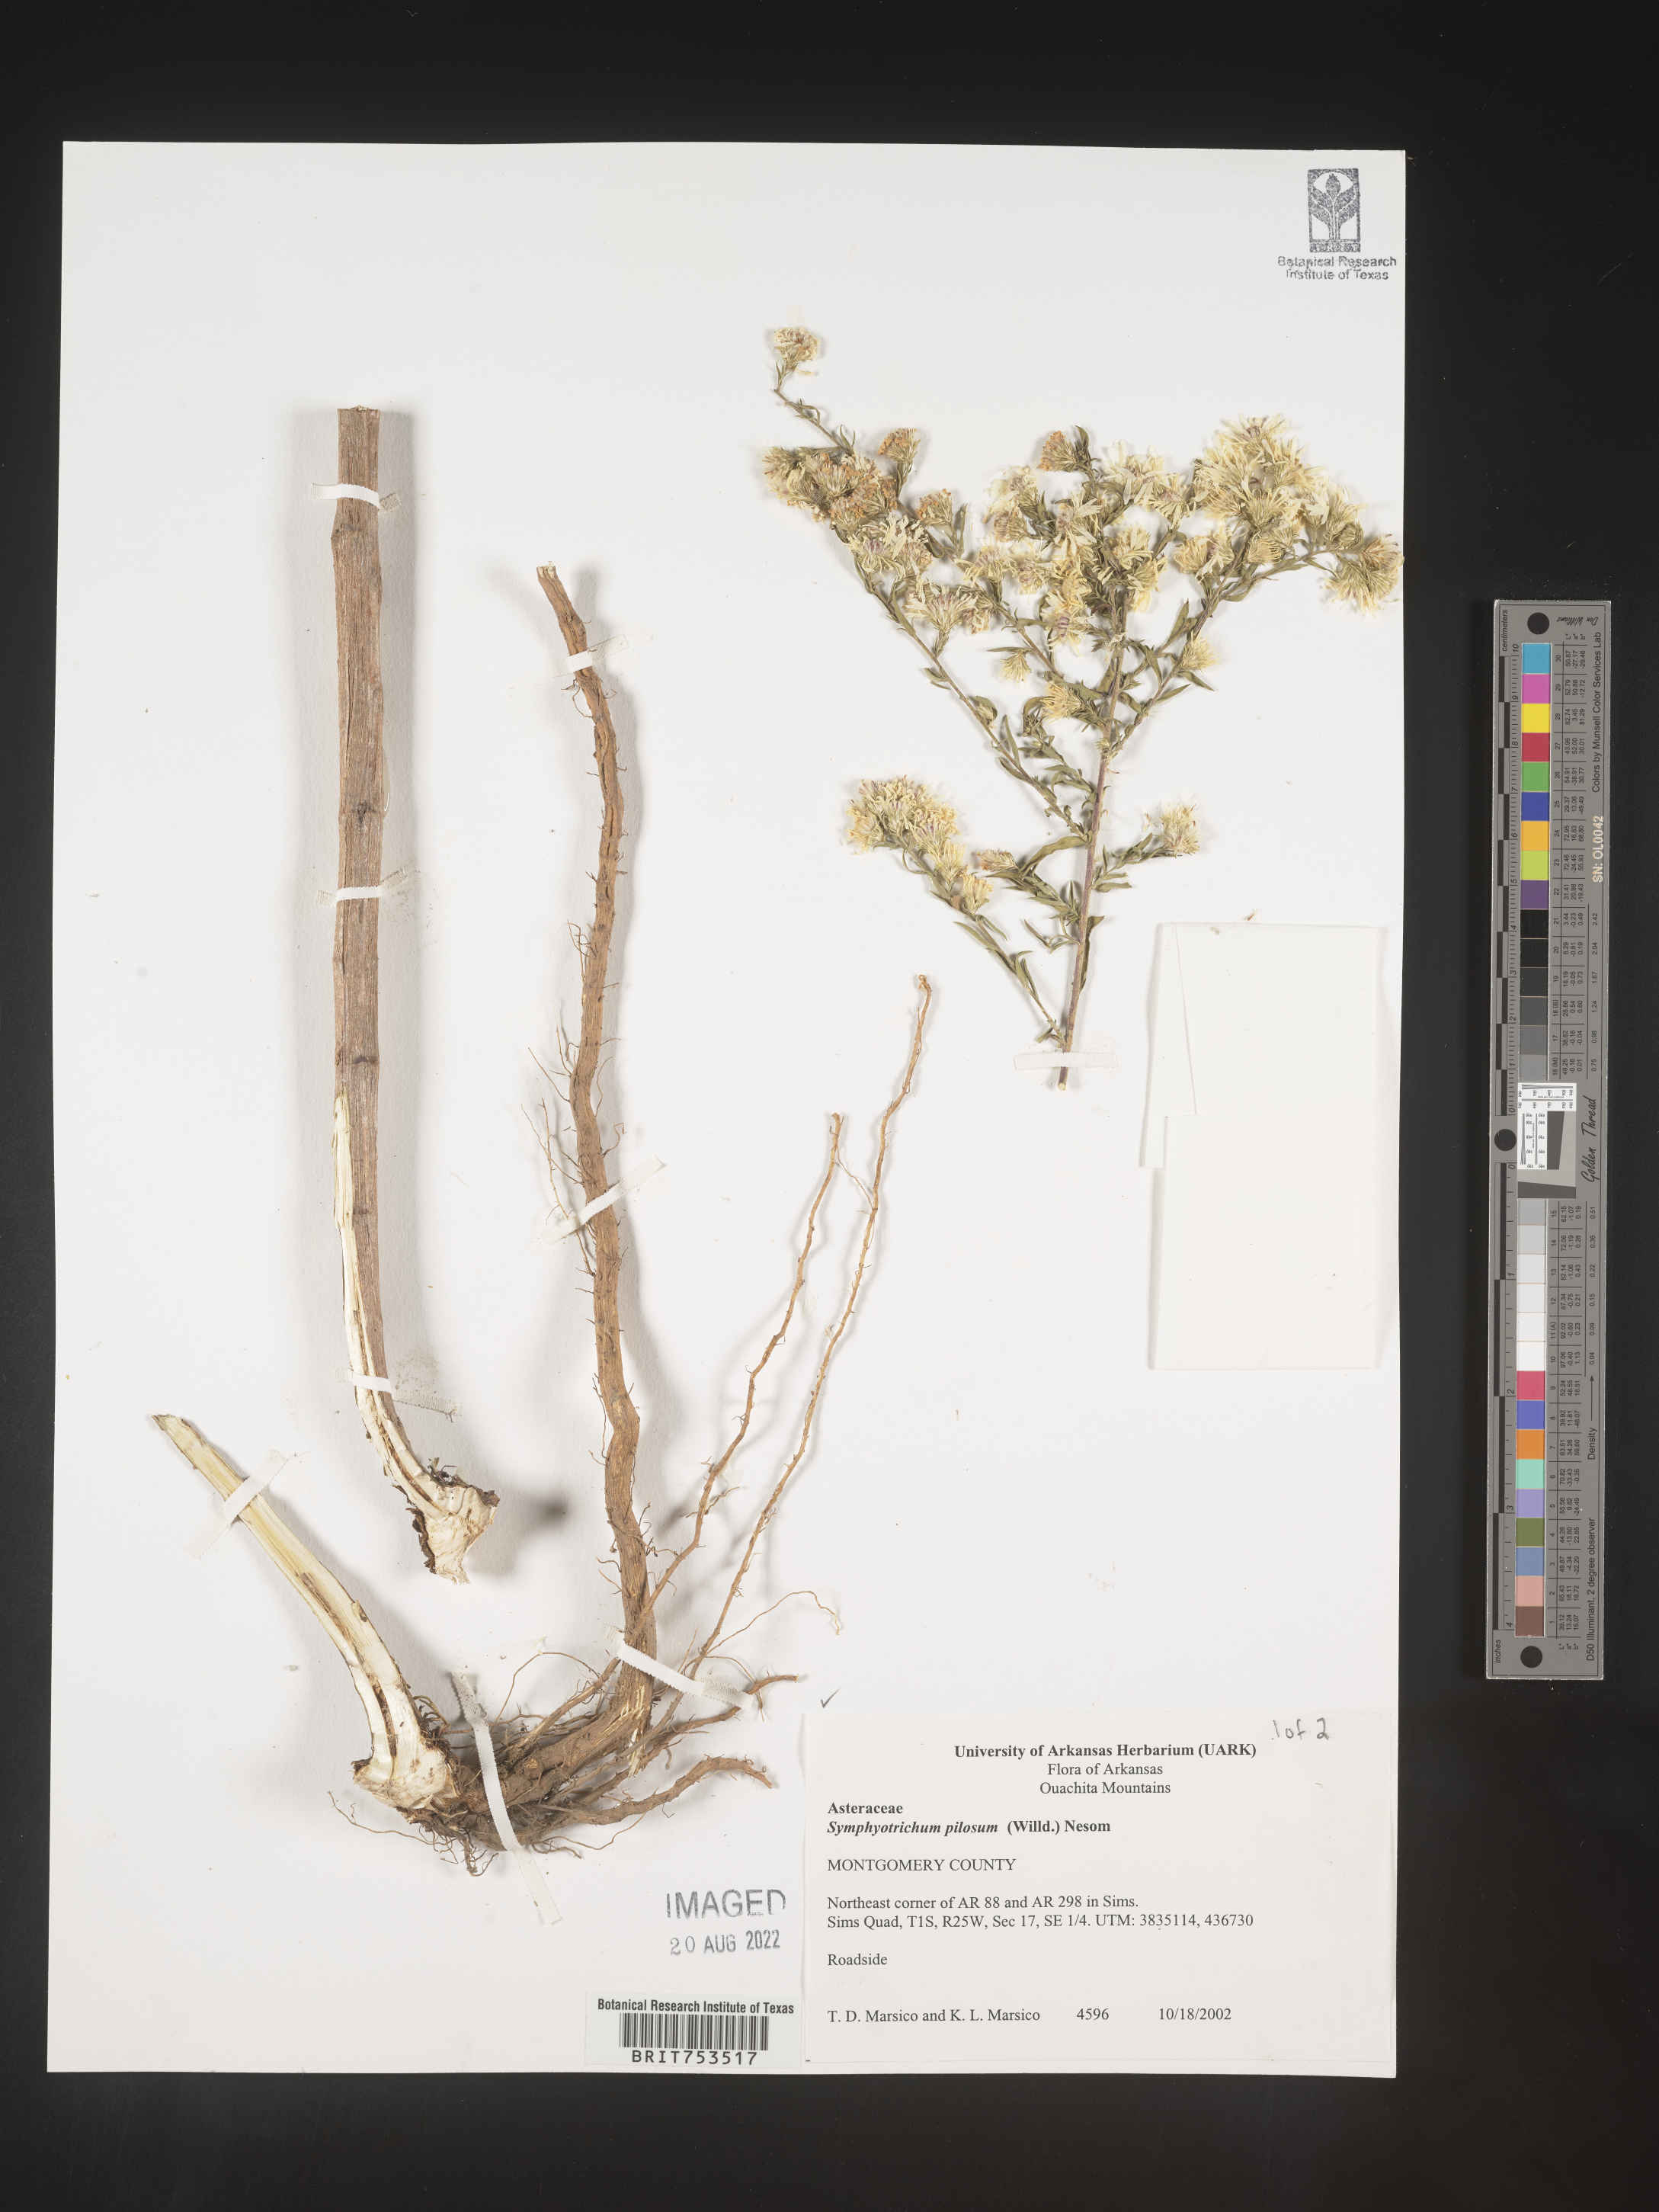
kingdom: Plantae
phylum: Tracheophyta
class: Magnoliopsida
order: Asterales
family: Asteraceae
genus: Symphyotrichum
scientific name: Symphyotrichum pilosum
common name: Awl aster
